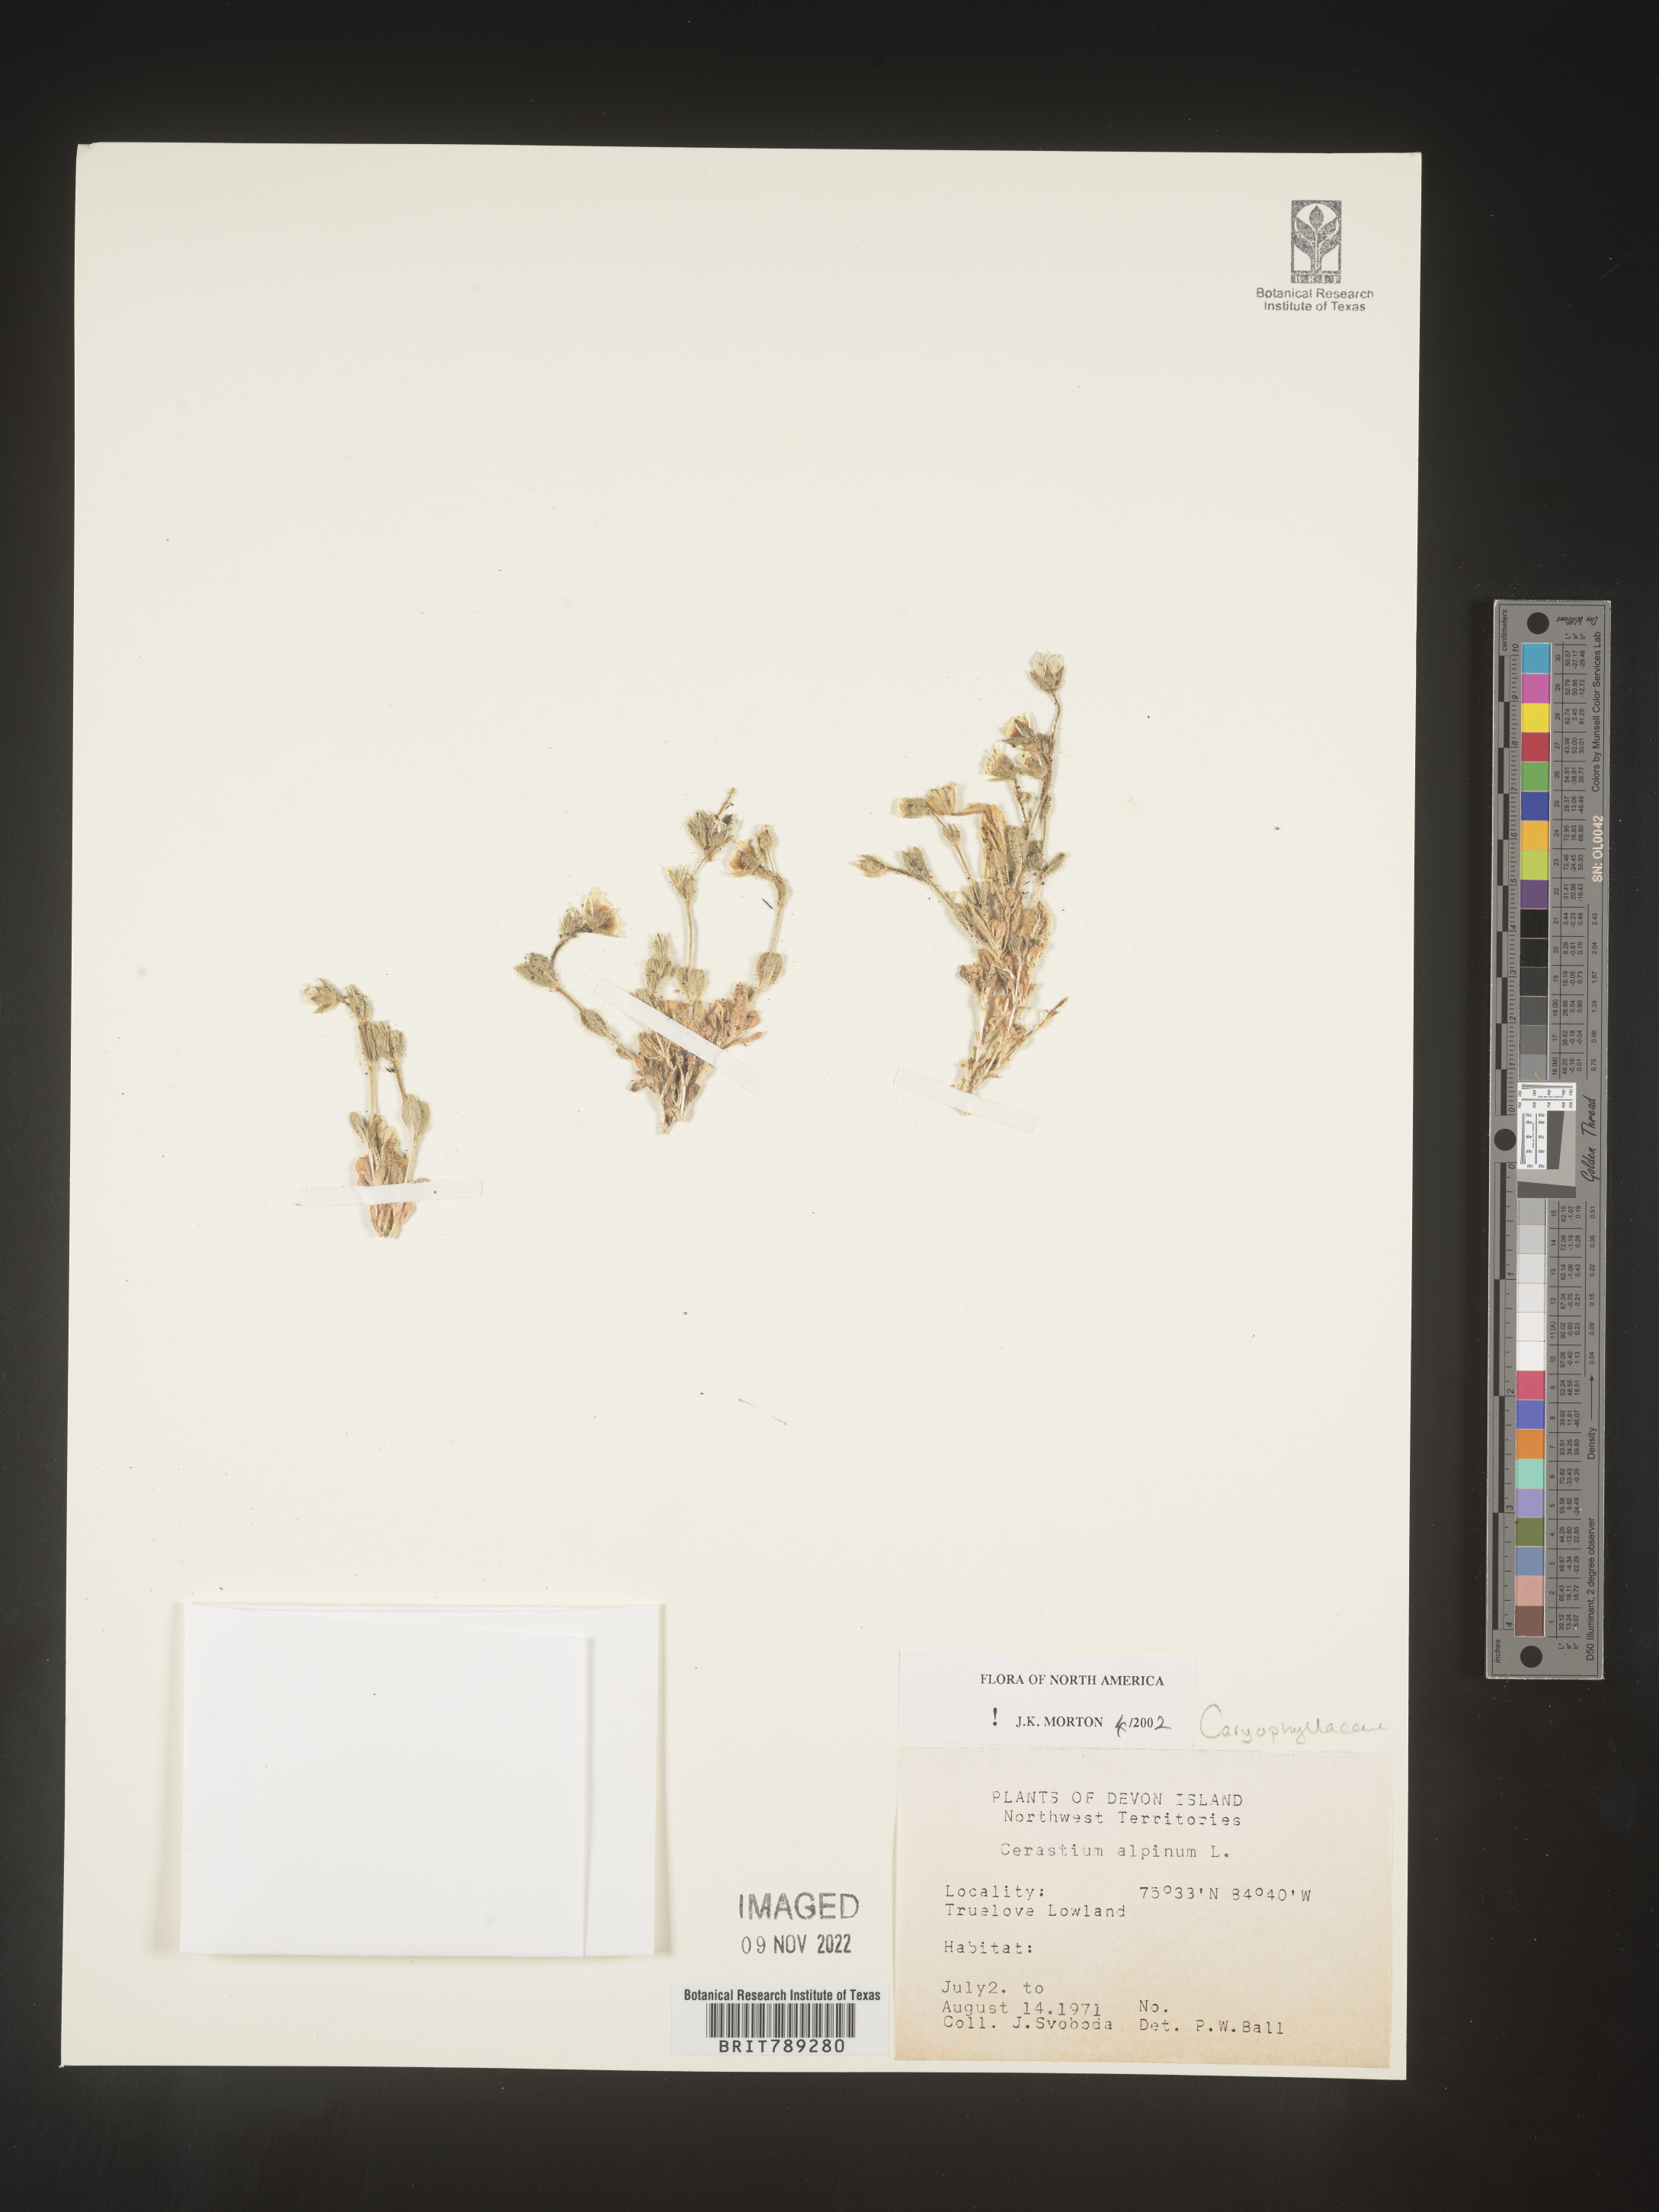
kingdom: Plantae
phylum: Tracheophyta
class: Magnoliopsida
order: Caryophyllales
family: Caryophyllaceae
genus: Cerastium
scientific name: Cerastium alpinum
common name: Alpine mouse-ear
